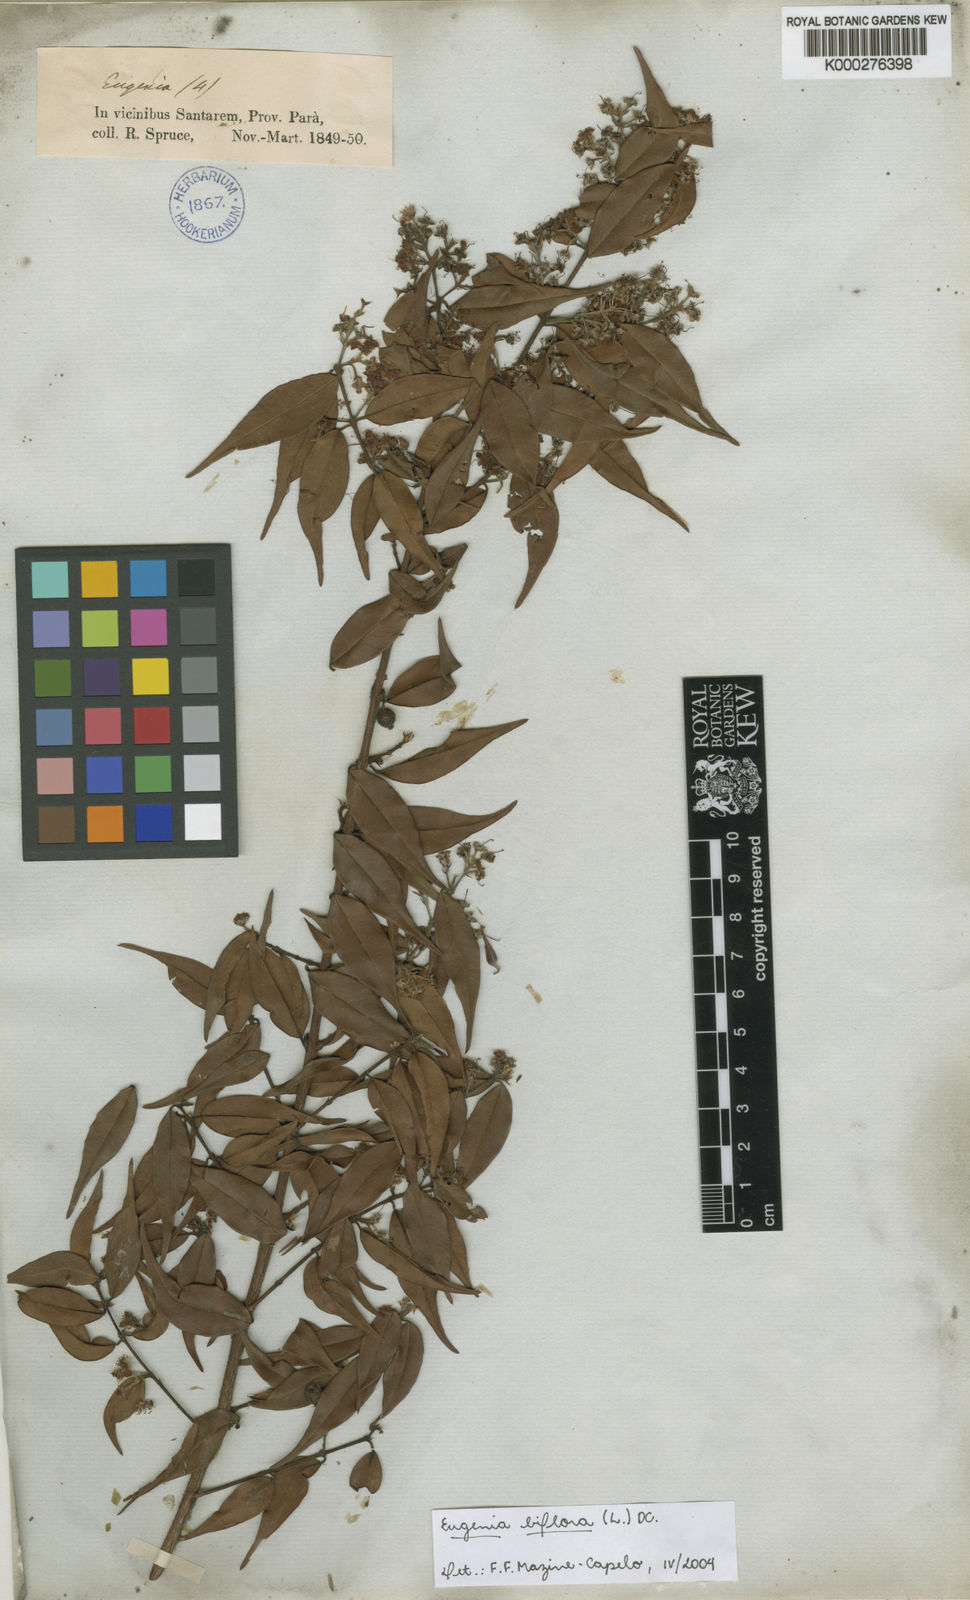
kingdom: Plantae
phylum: Tracheophyta
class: Magnoliopsida
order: Myrtales
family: Myrtaceae
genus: Eugenia
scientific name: Eugenia biflora
